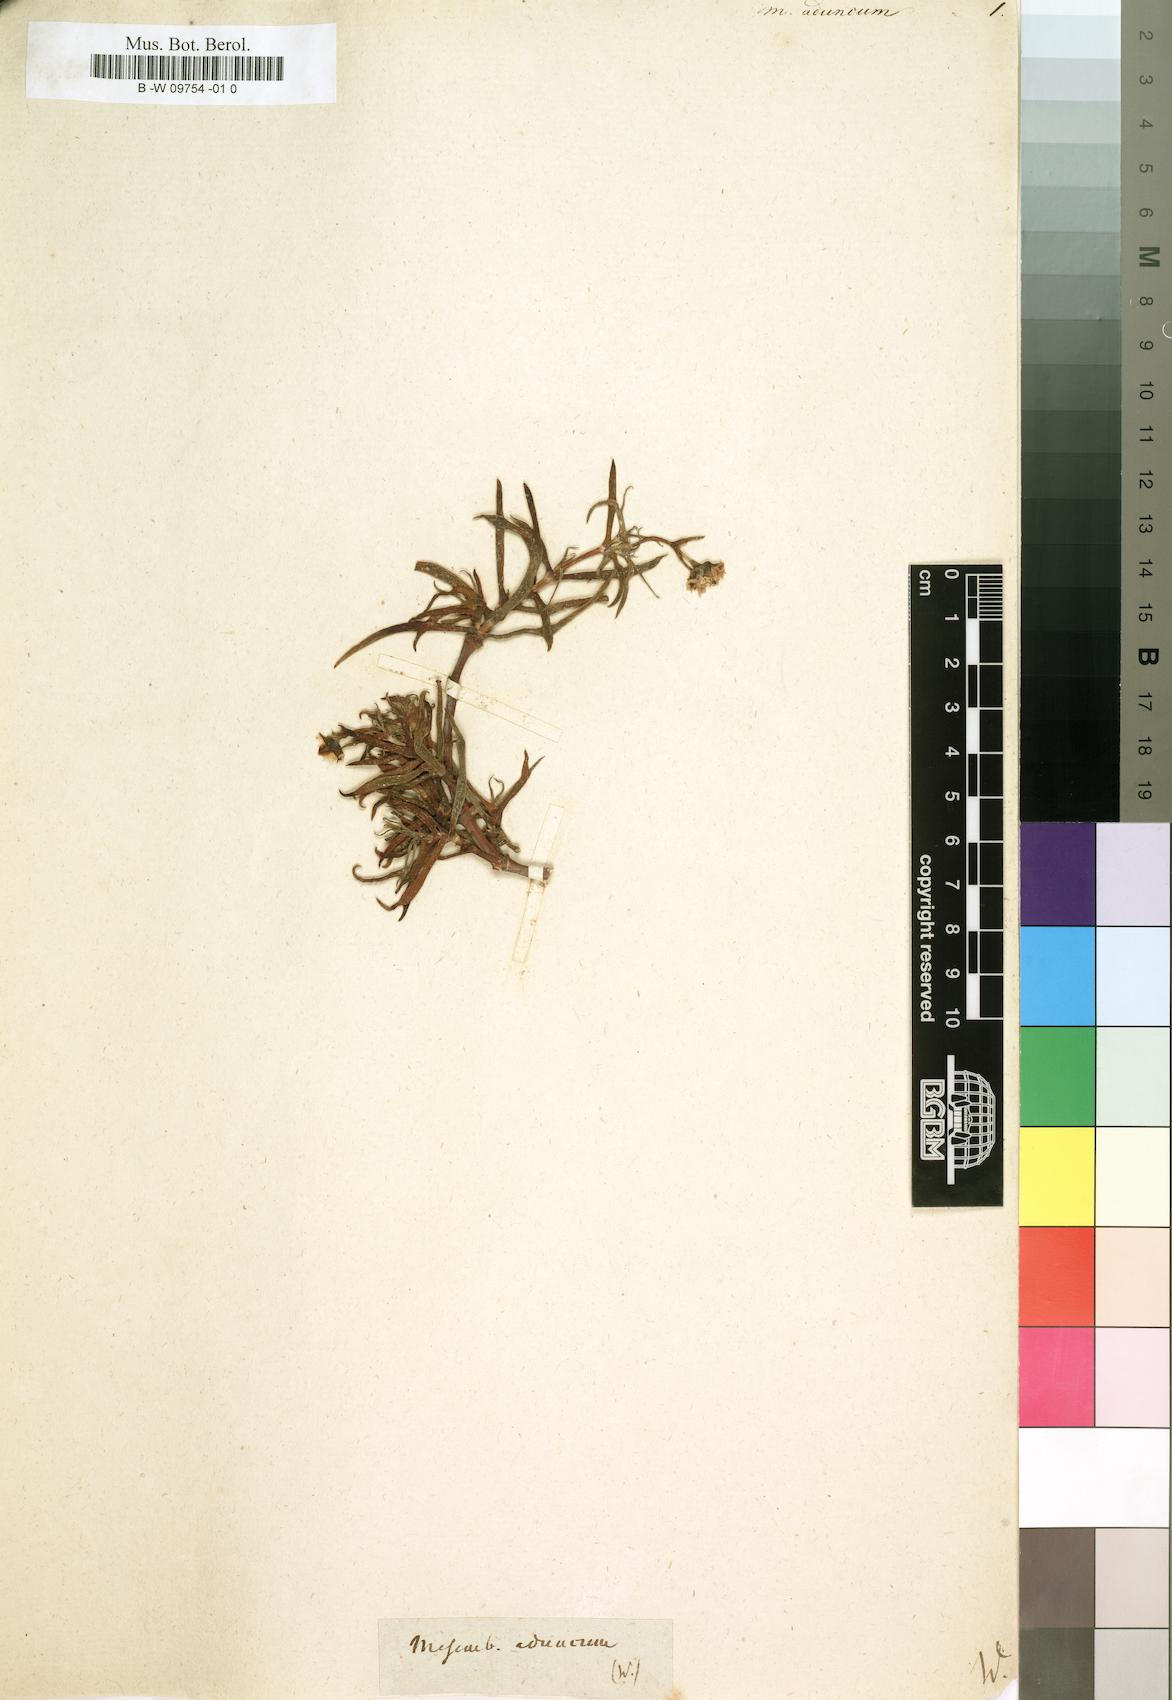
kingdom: Plantae
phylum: Tracheophyta
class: Magnoliopsida
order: Caryophyllales
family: Aizoaceae
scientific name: Aizoaceae
